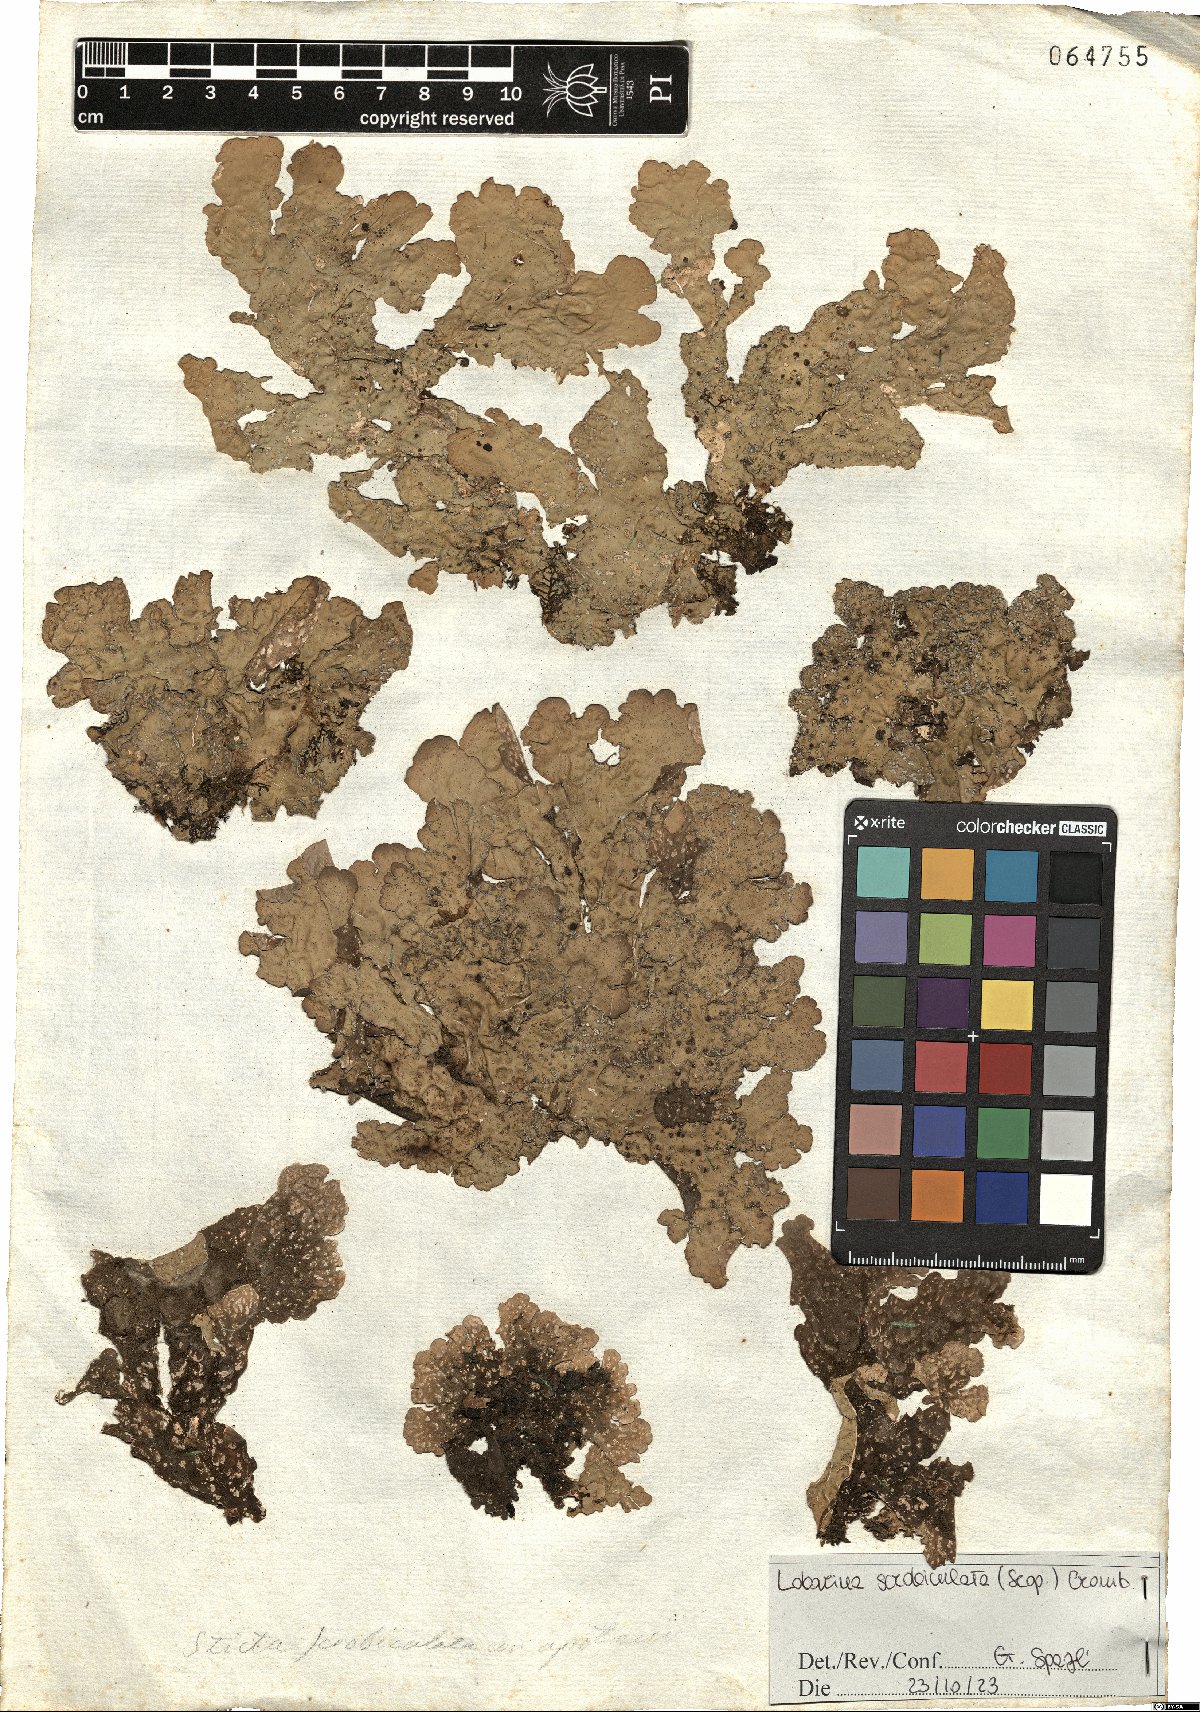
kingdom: Fungi
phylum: Ascomycota
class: Lecanoromycetes
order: Peltigerales
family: Lobariaceae
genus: Lobarina
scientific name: Lobarina scrobiculata
